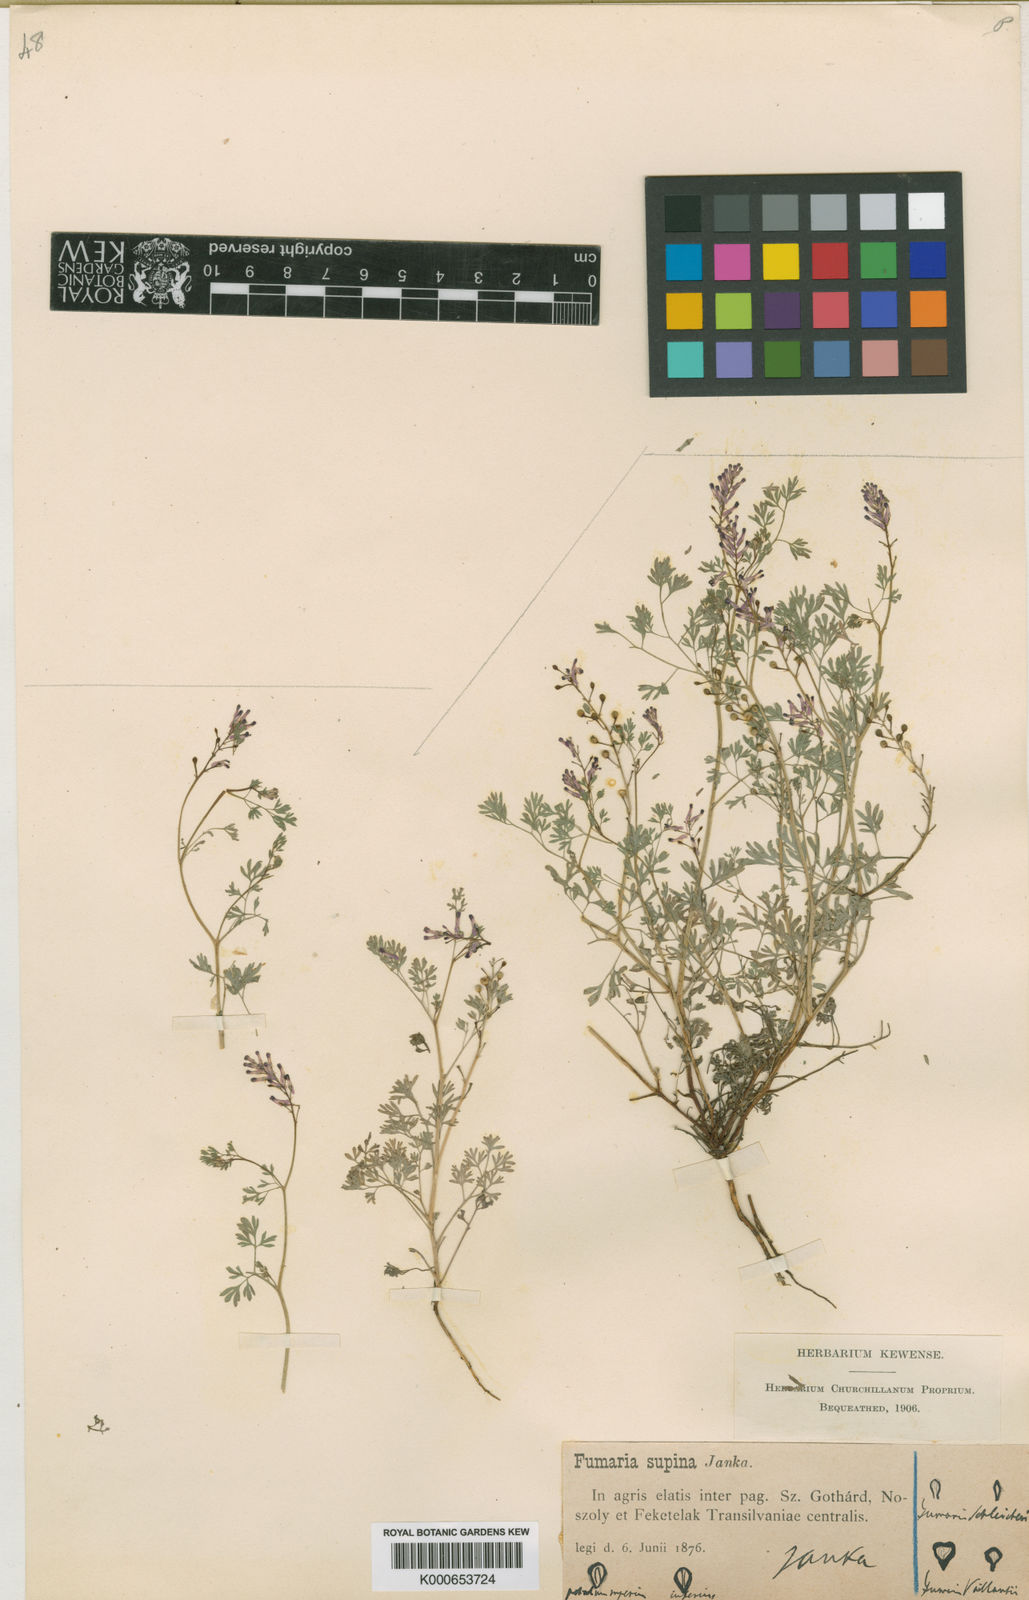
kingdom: Plantae
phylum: Tracheophyta
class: Magnoliopsida
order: Ranunculales
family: Papaveraceae
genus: Fumaria
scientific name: Fumaria schleicheri
